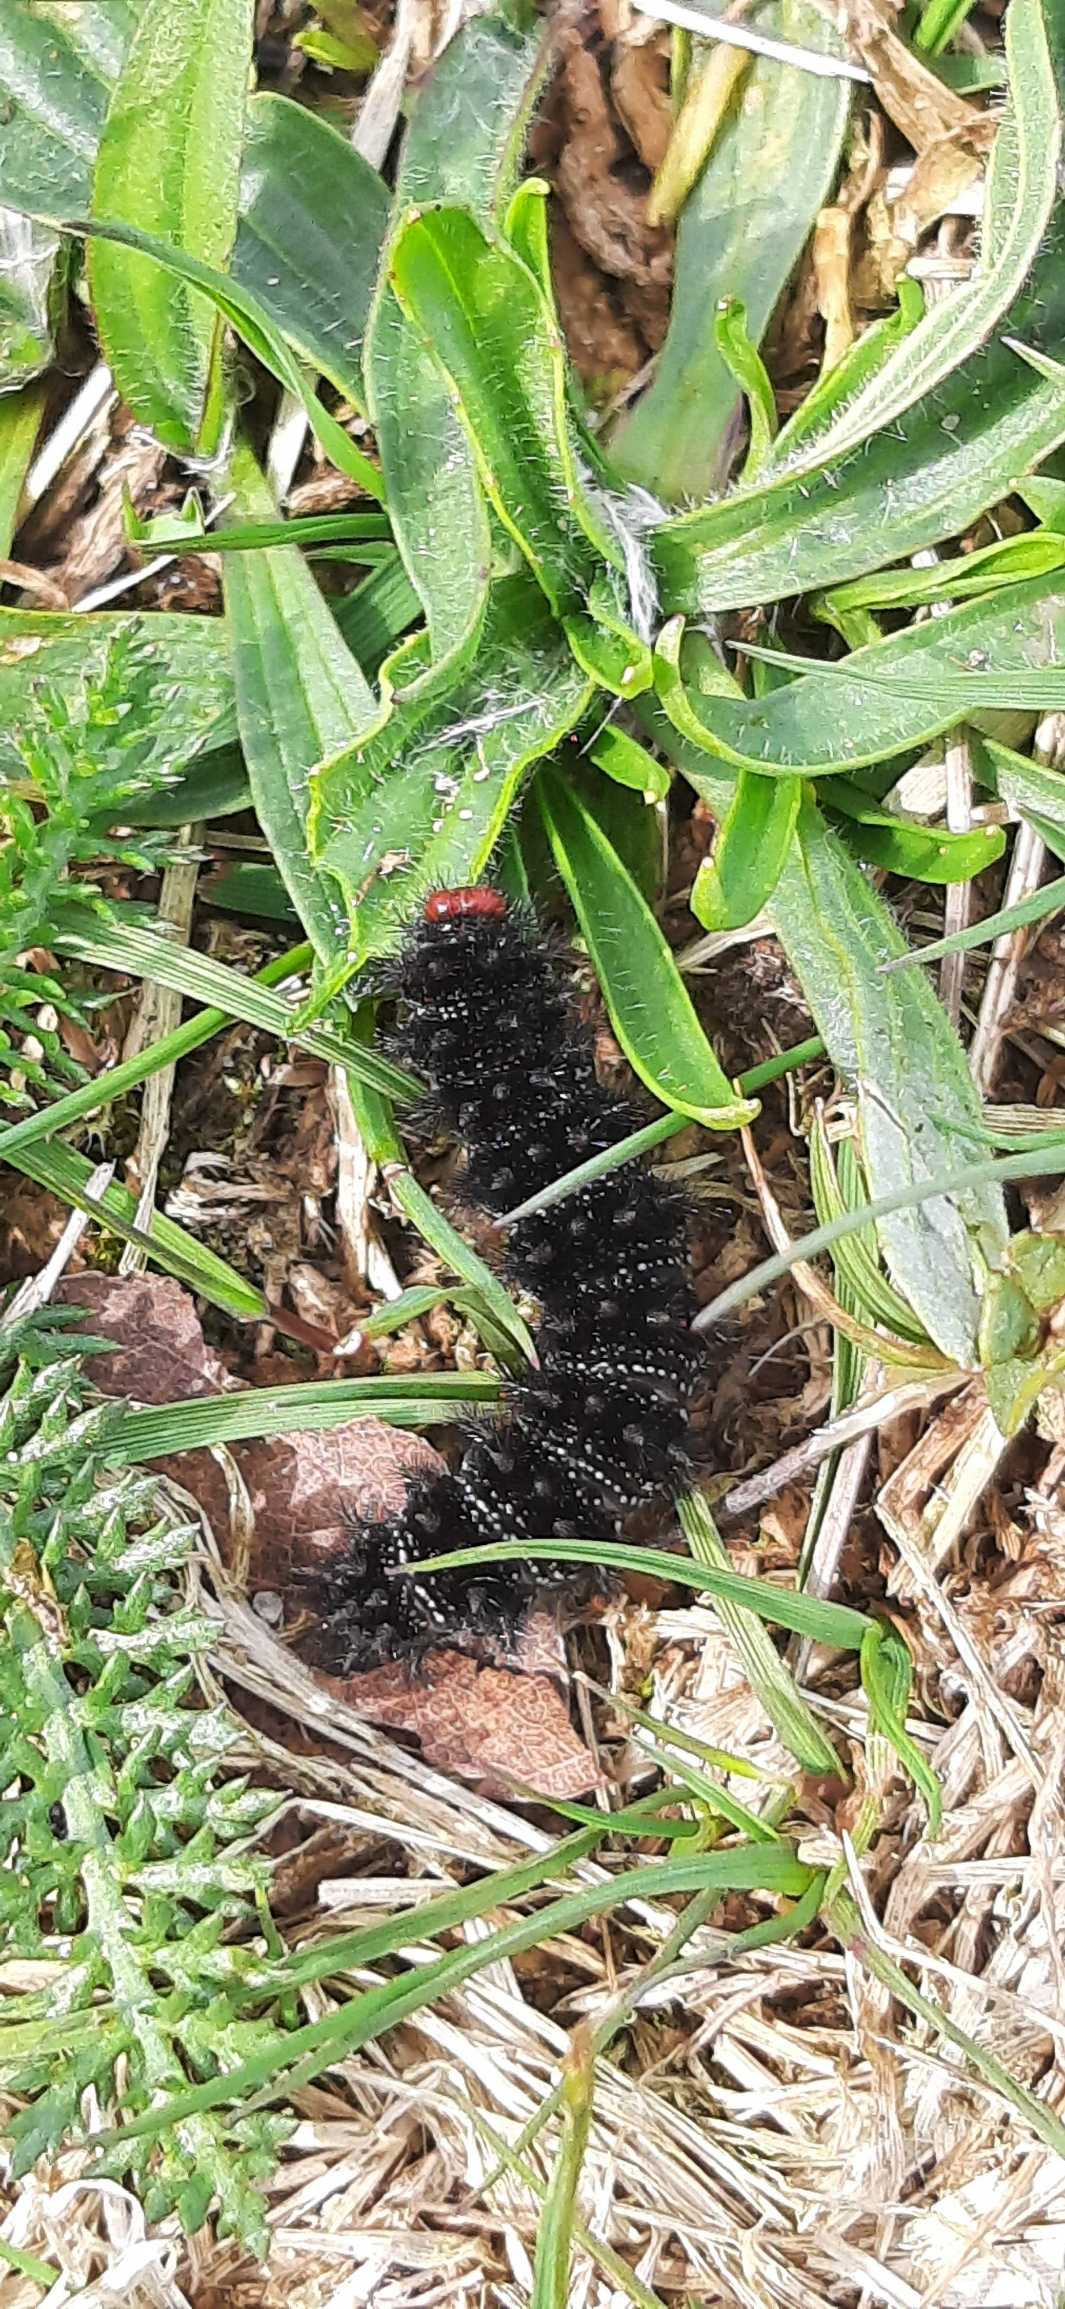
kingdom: Animalia
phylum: Arthropoda
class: Insecta
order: Lepidoptera
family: Nymphalidae
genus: Melitaea
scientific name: Melitaea cinxia
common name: Okkergul pletvinge
